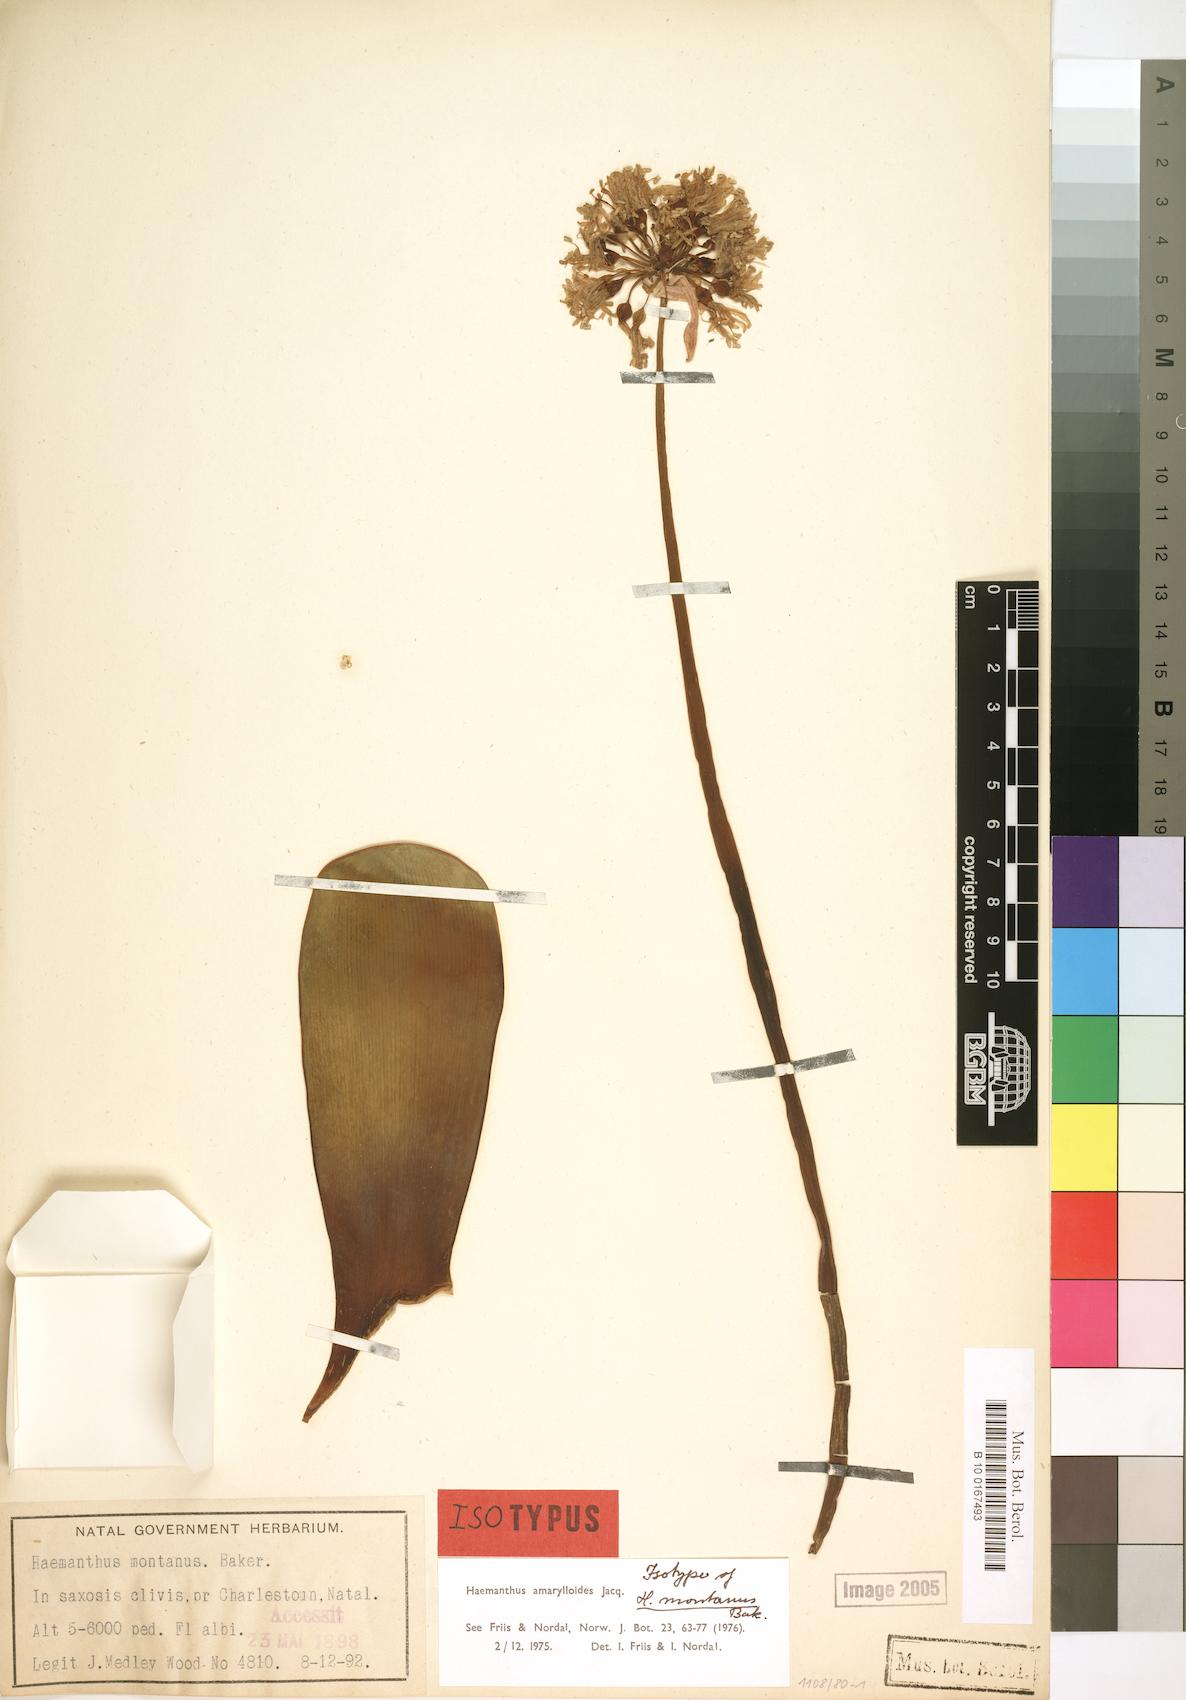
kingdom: Plantae
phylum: Tracheophyta
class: Liliopsida
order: Asparagales
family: Amaryllidaceae
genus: Haemanthus
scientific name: Haemanthus amarylloides
